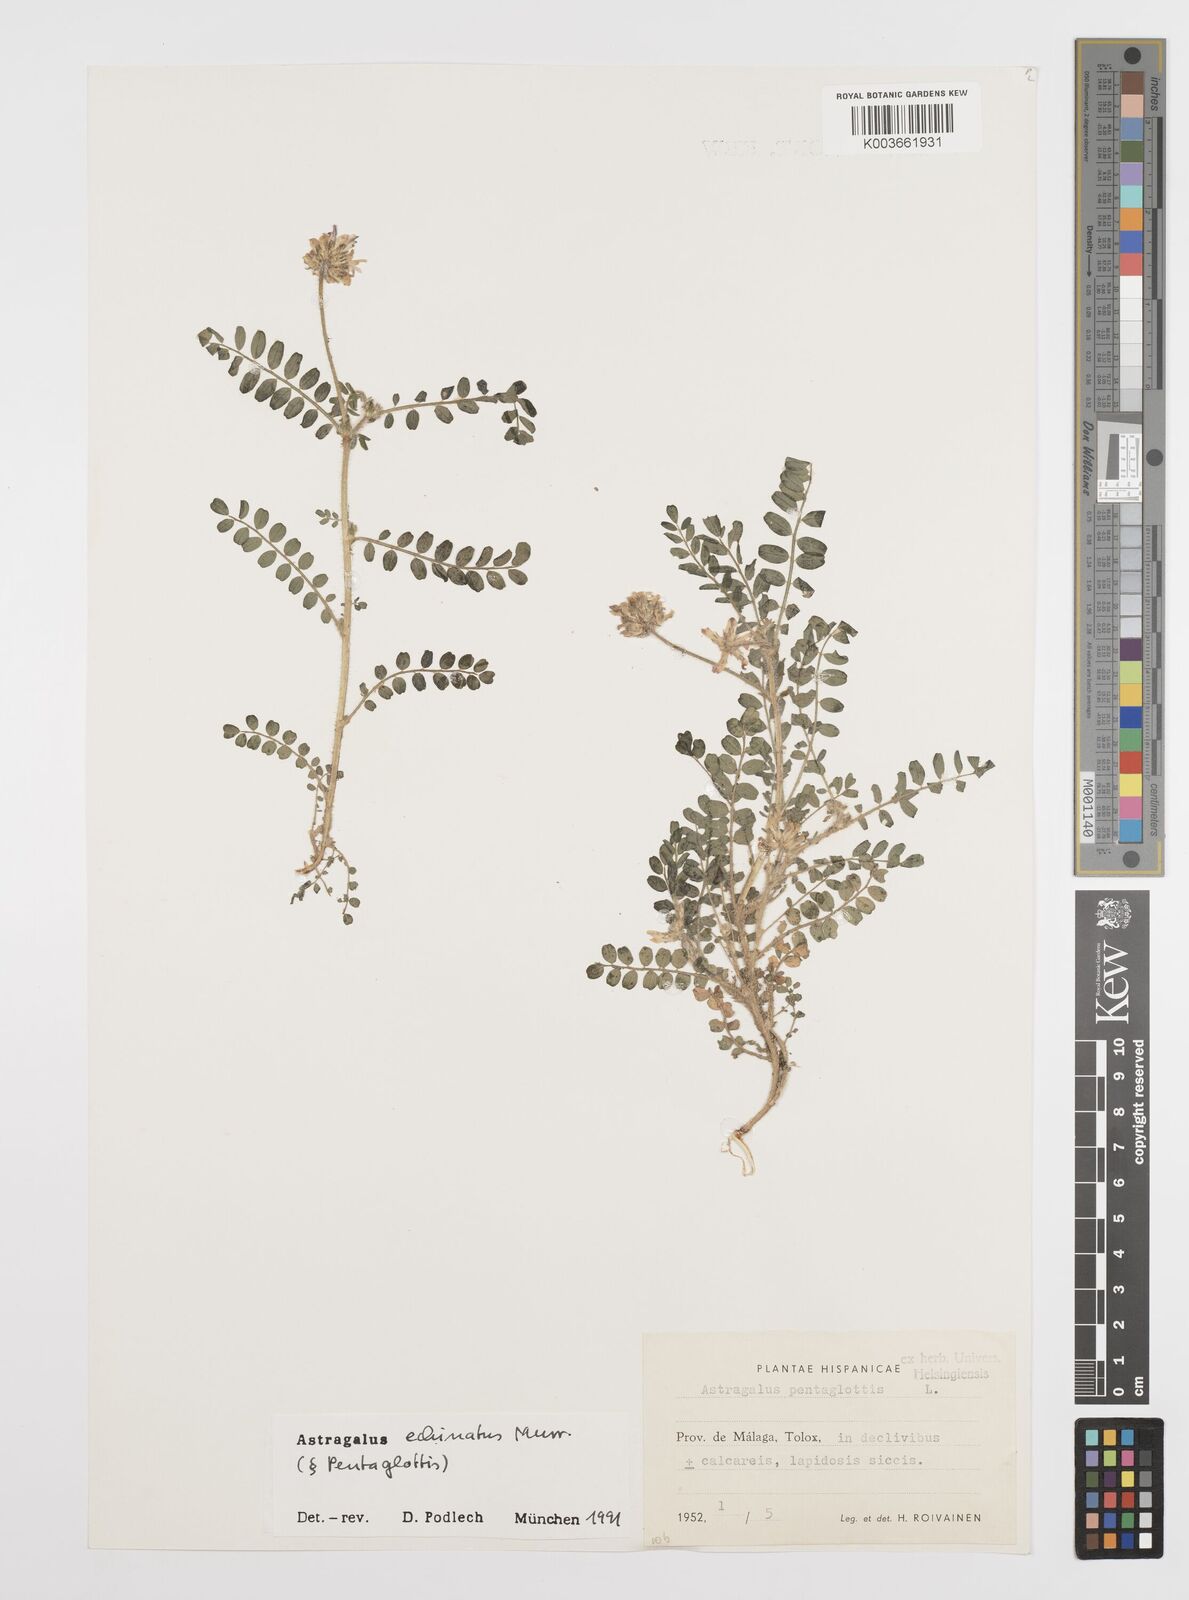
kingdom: Plantae
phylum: Tracheophyta
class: Magnoliopsida
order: Fabales
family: Fabaceae
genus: Astragalus
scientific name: Astragalus echinatus
